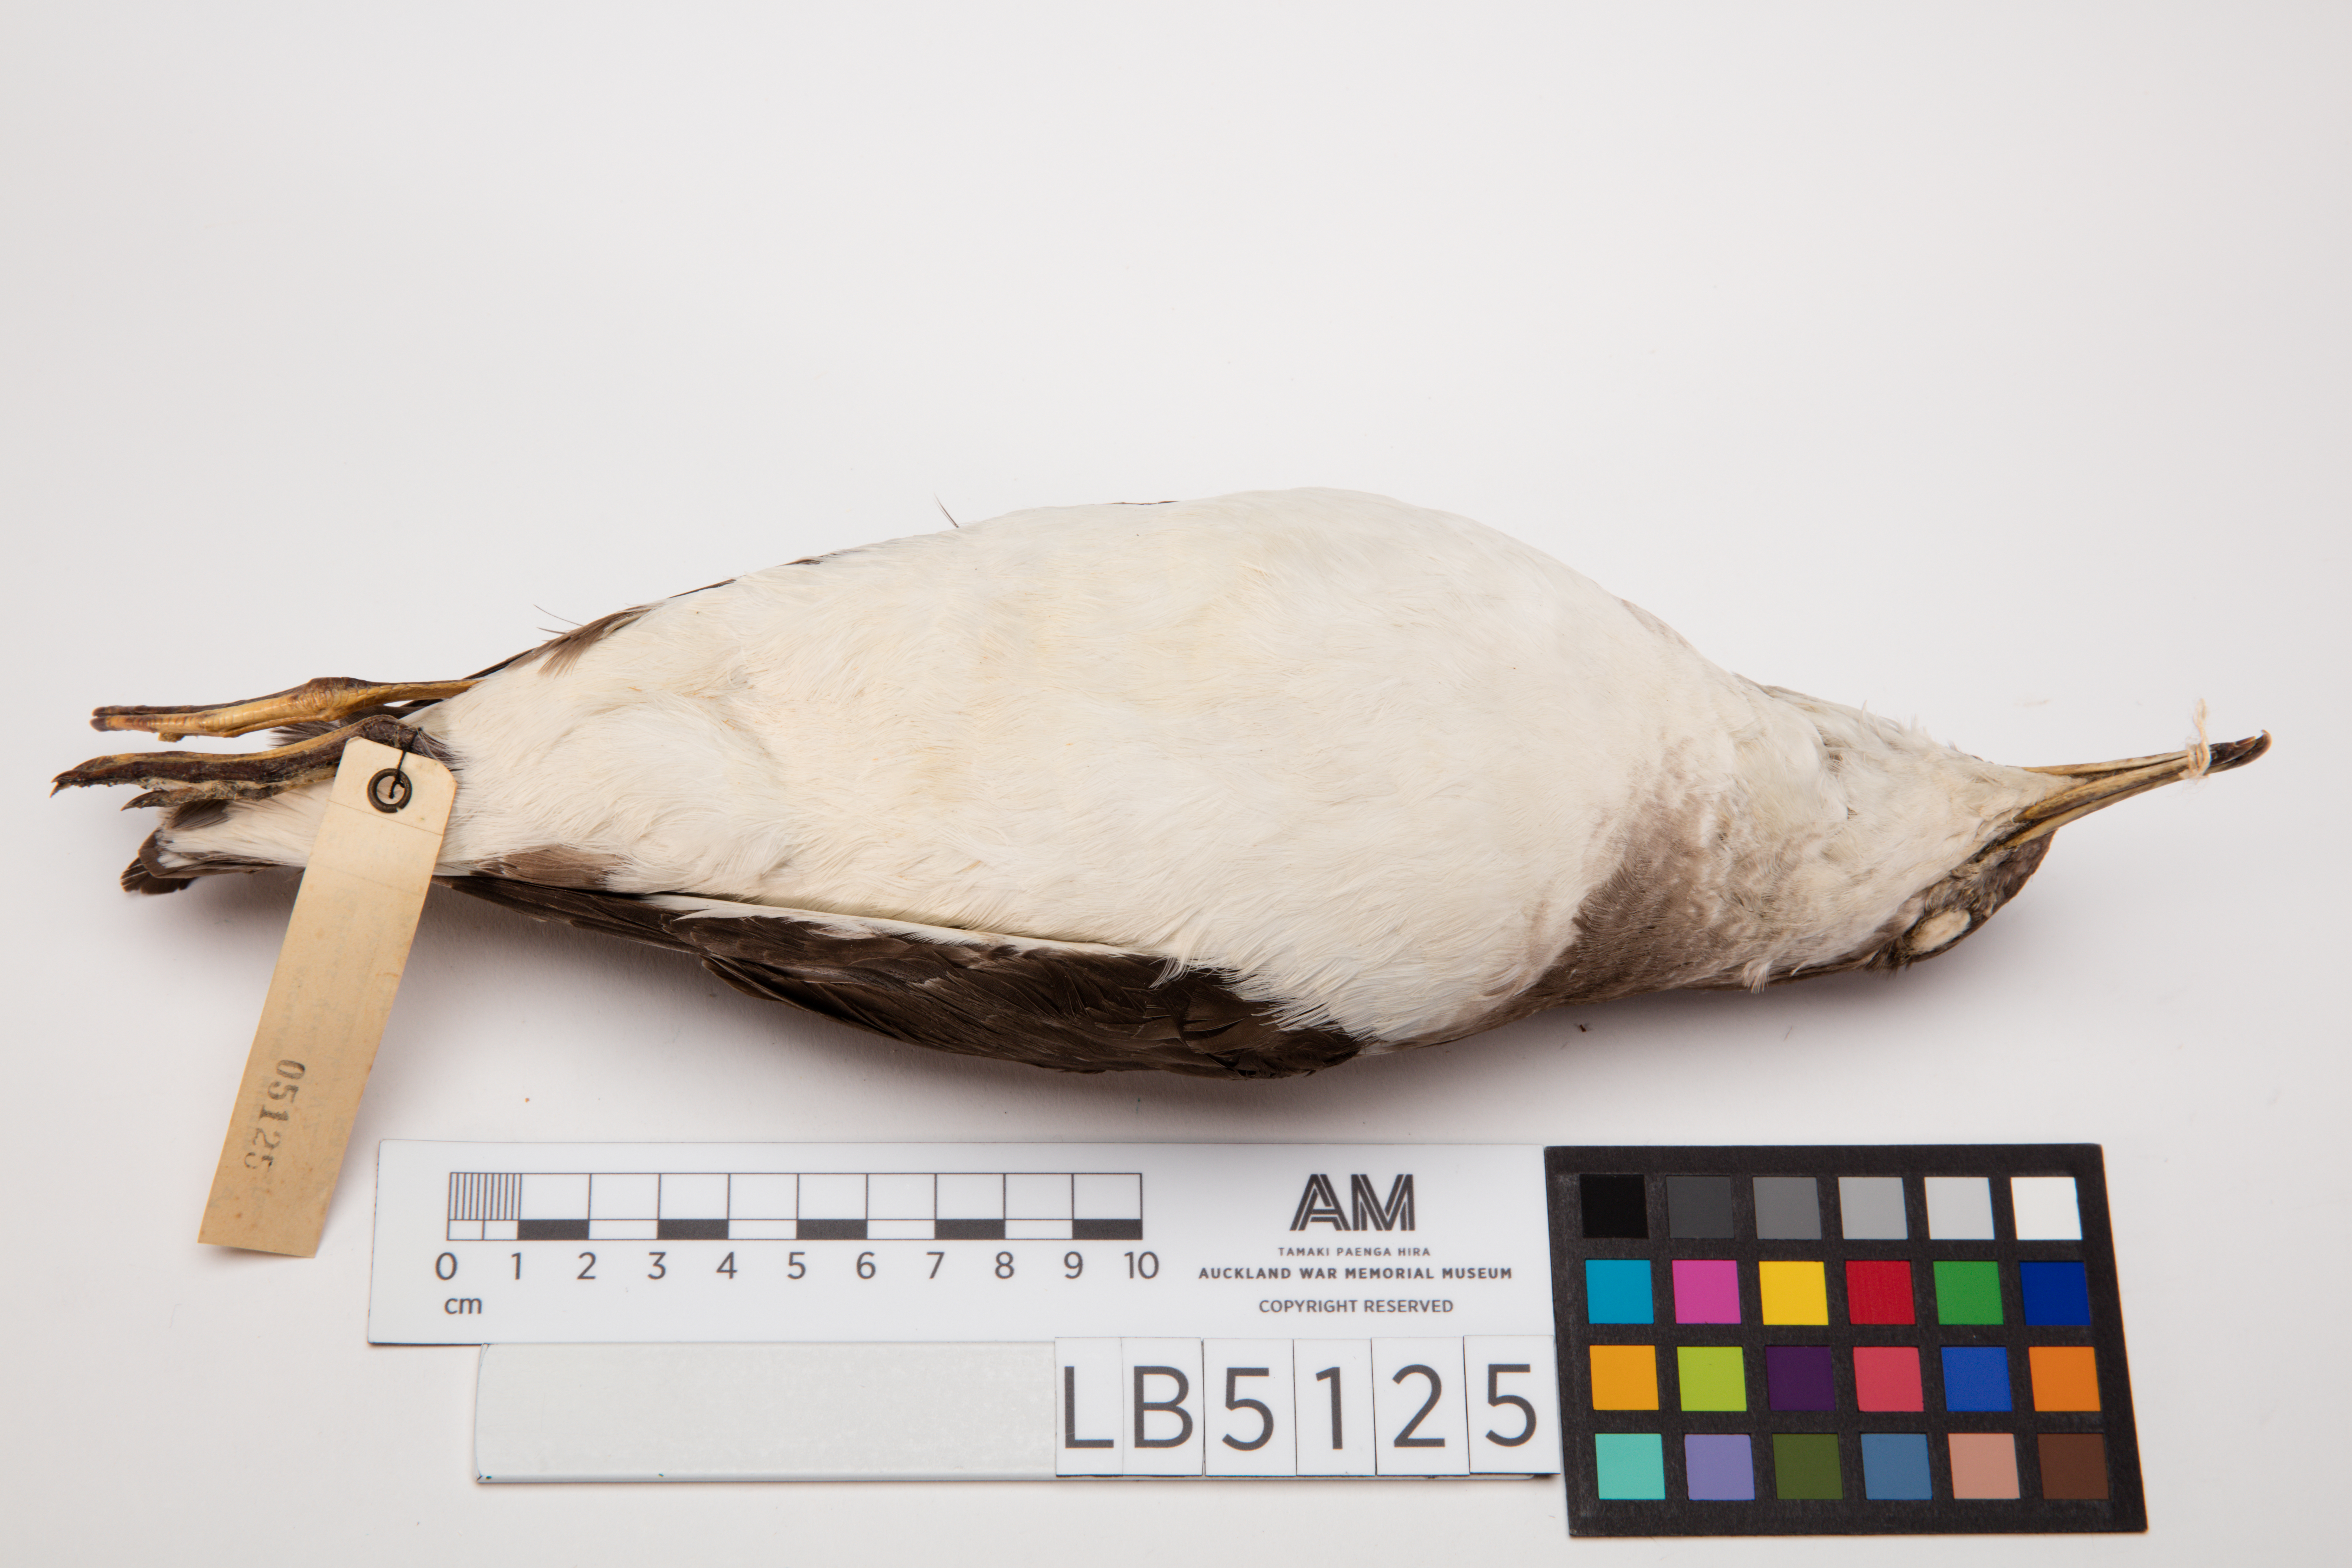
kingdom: Animalia
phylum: Chordata
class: Aves
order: Procellariiformes
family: Procellariidae
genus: Ardenna
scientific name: Ardenna
